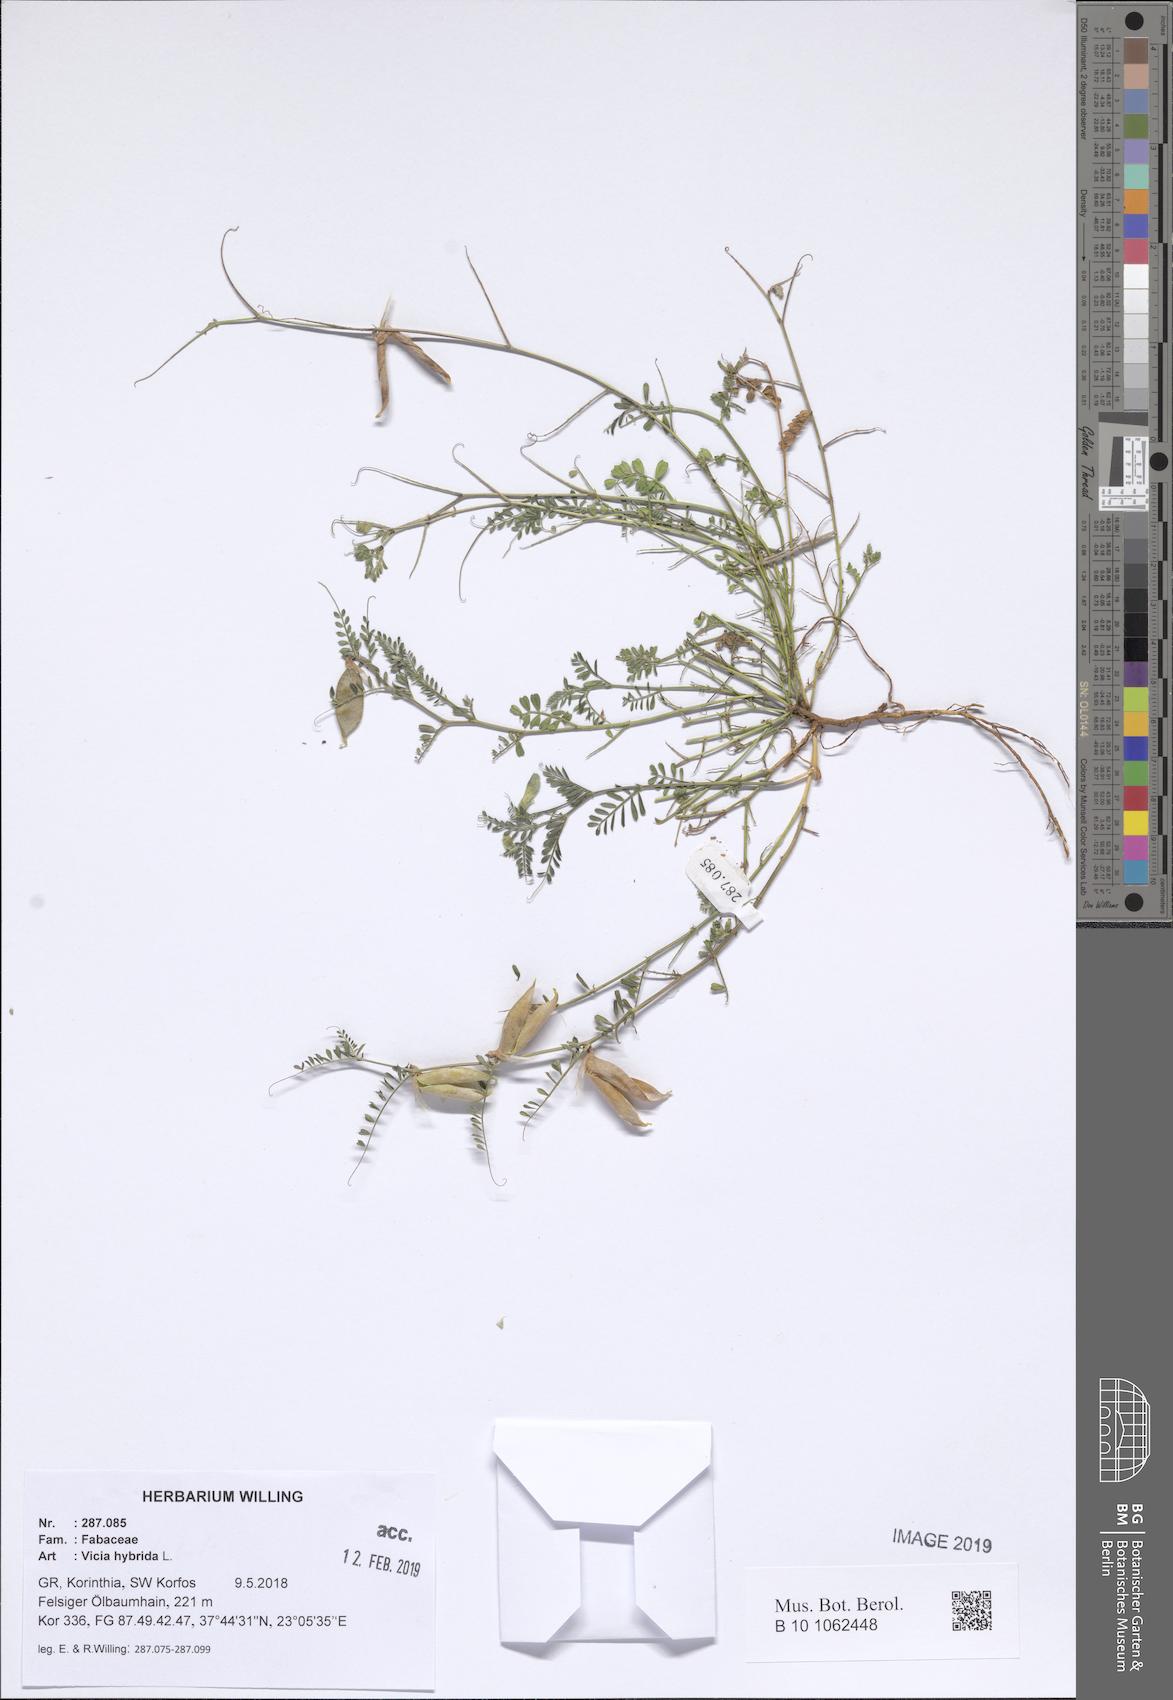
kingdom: Plantae
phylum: Tracheophyta
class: Magnoliopsida
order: Fabales
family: Fabaceae
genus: Vicia
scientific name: Vicia hybrida
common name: Hairy yellow vetch
